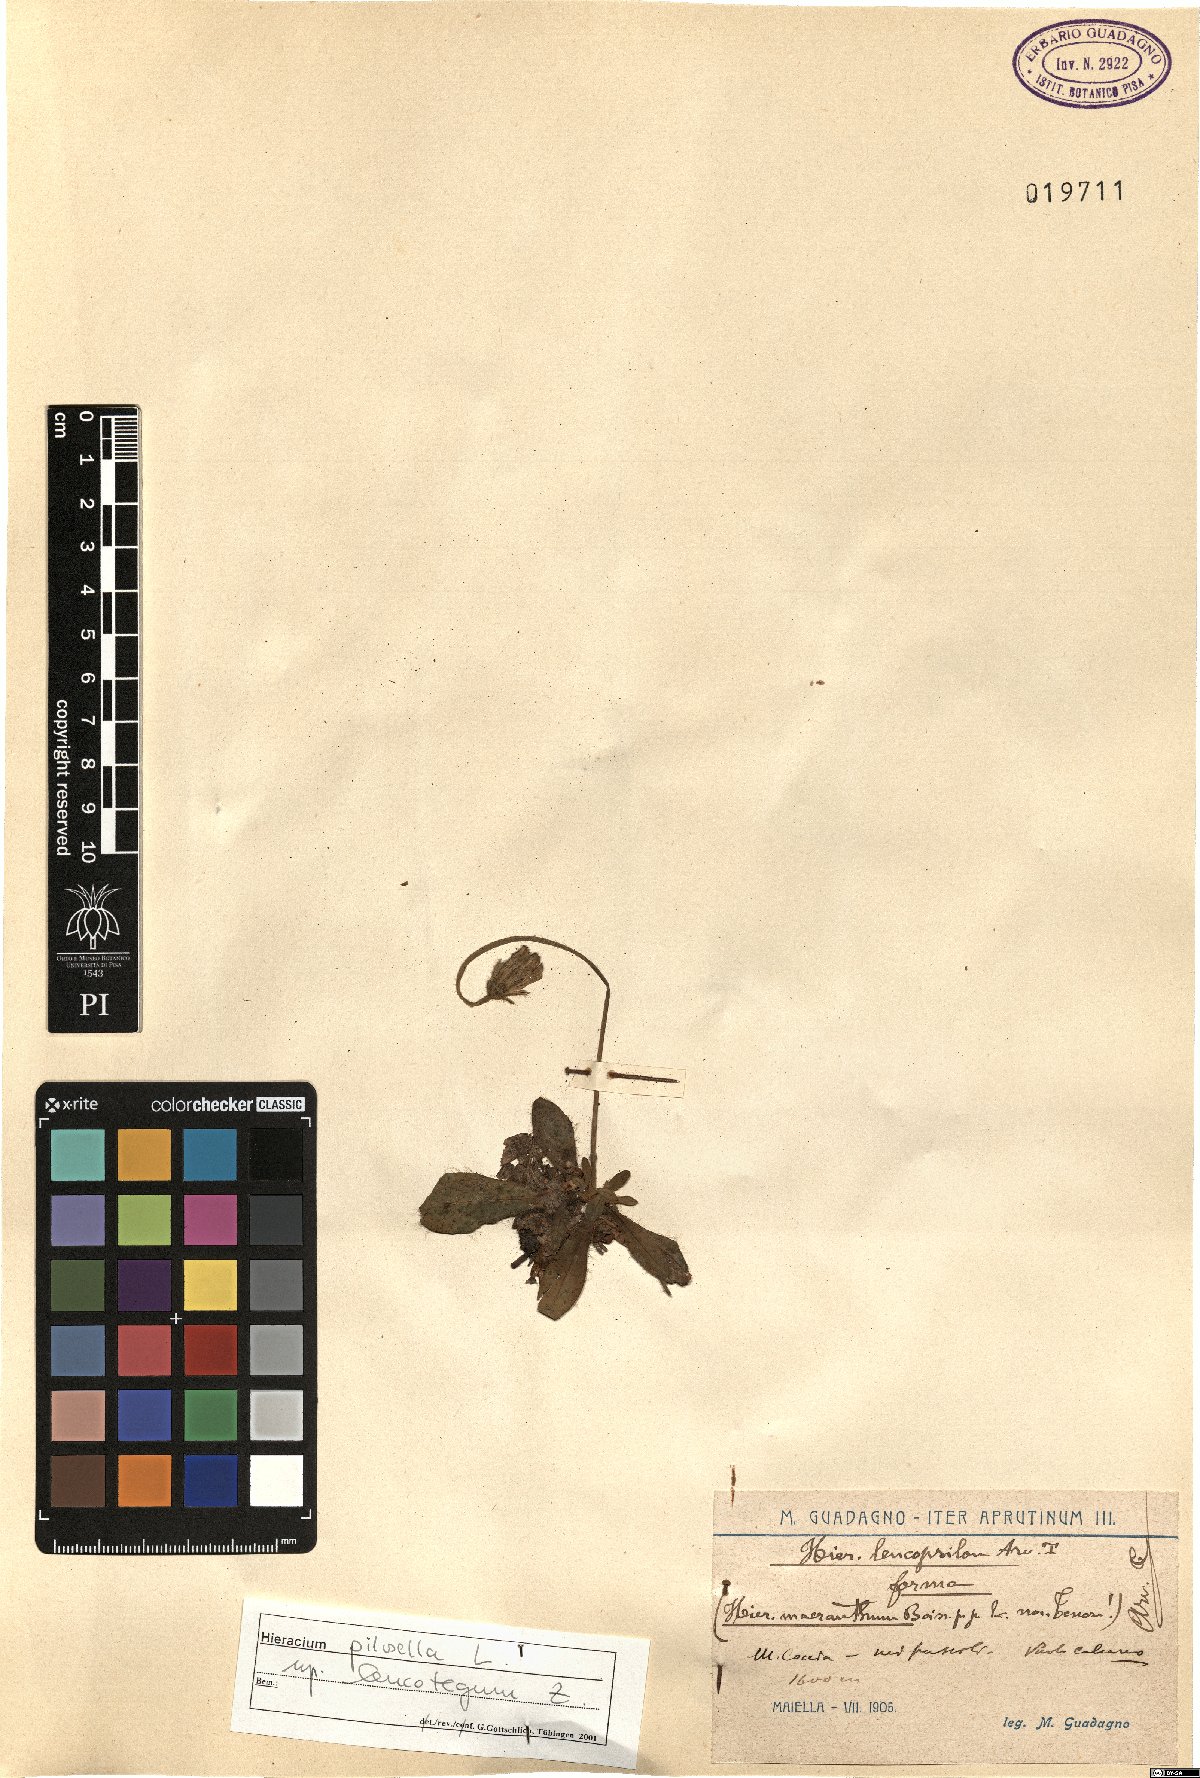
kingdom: Plantae
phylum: Tracheophyta
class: Magnoliopsida
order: Asterales
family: Asteraceae
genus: Pilosella
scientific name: Pilosella officinarum
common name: Mouse-ear hawkweed
